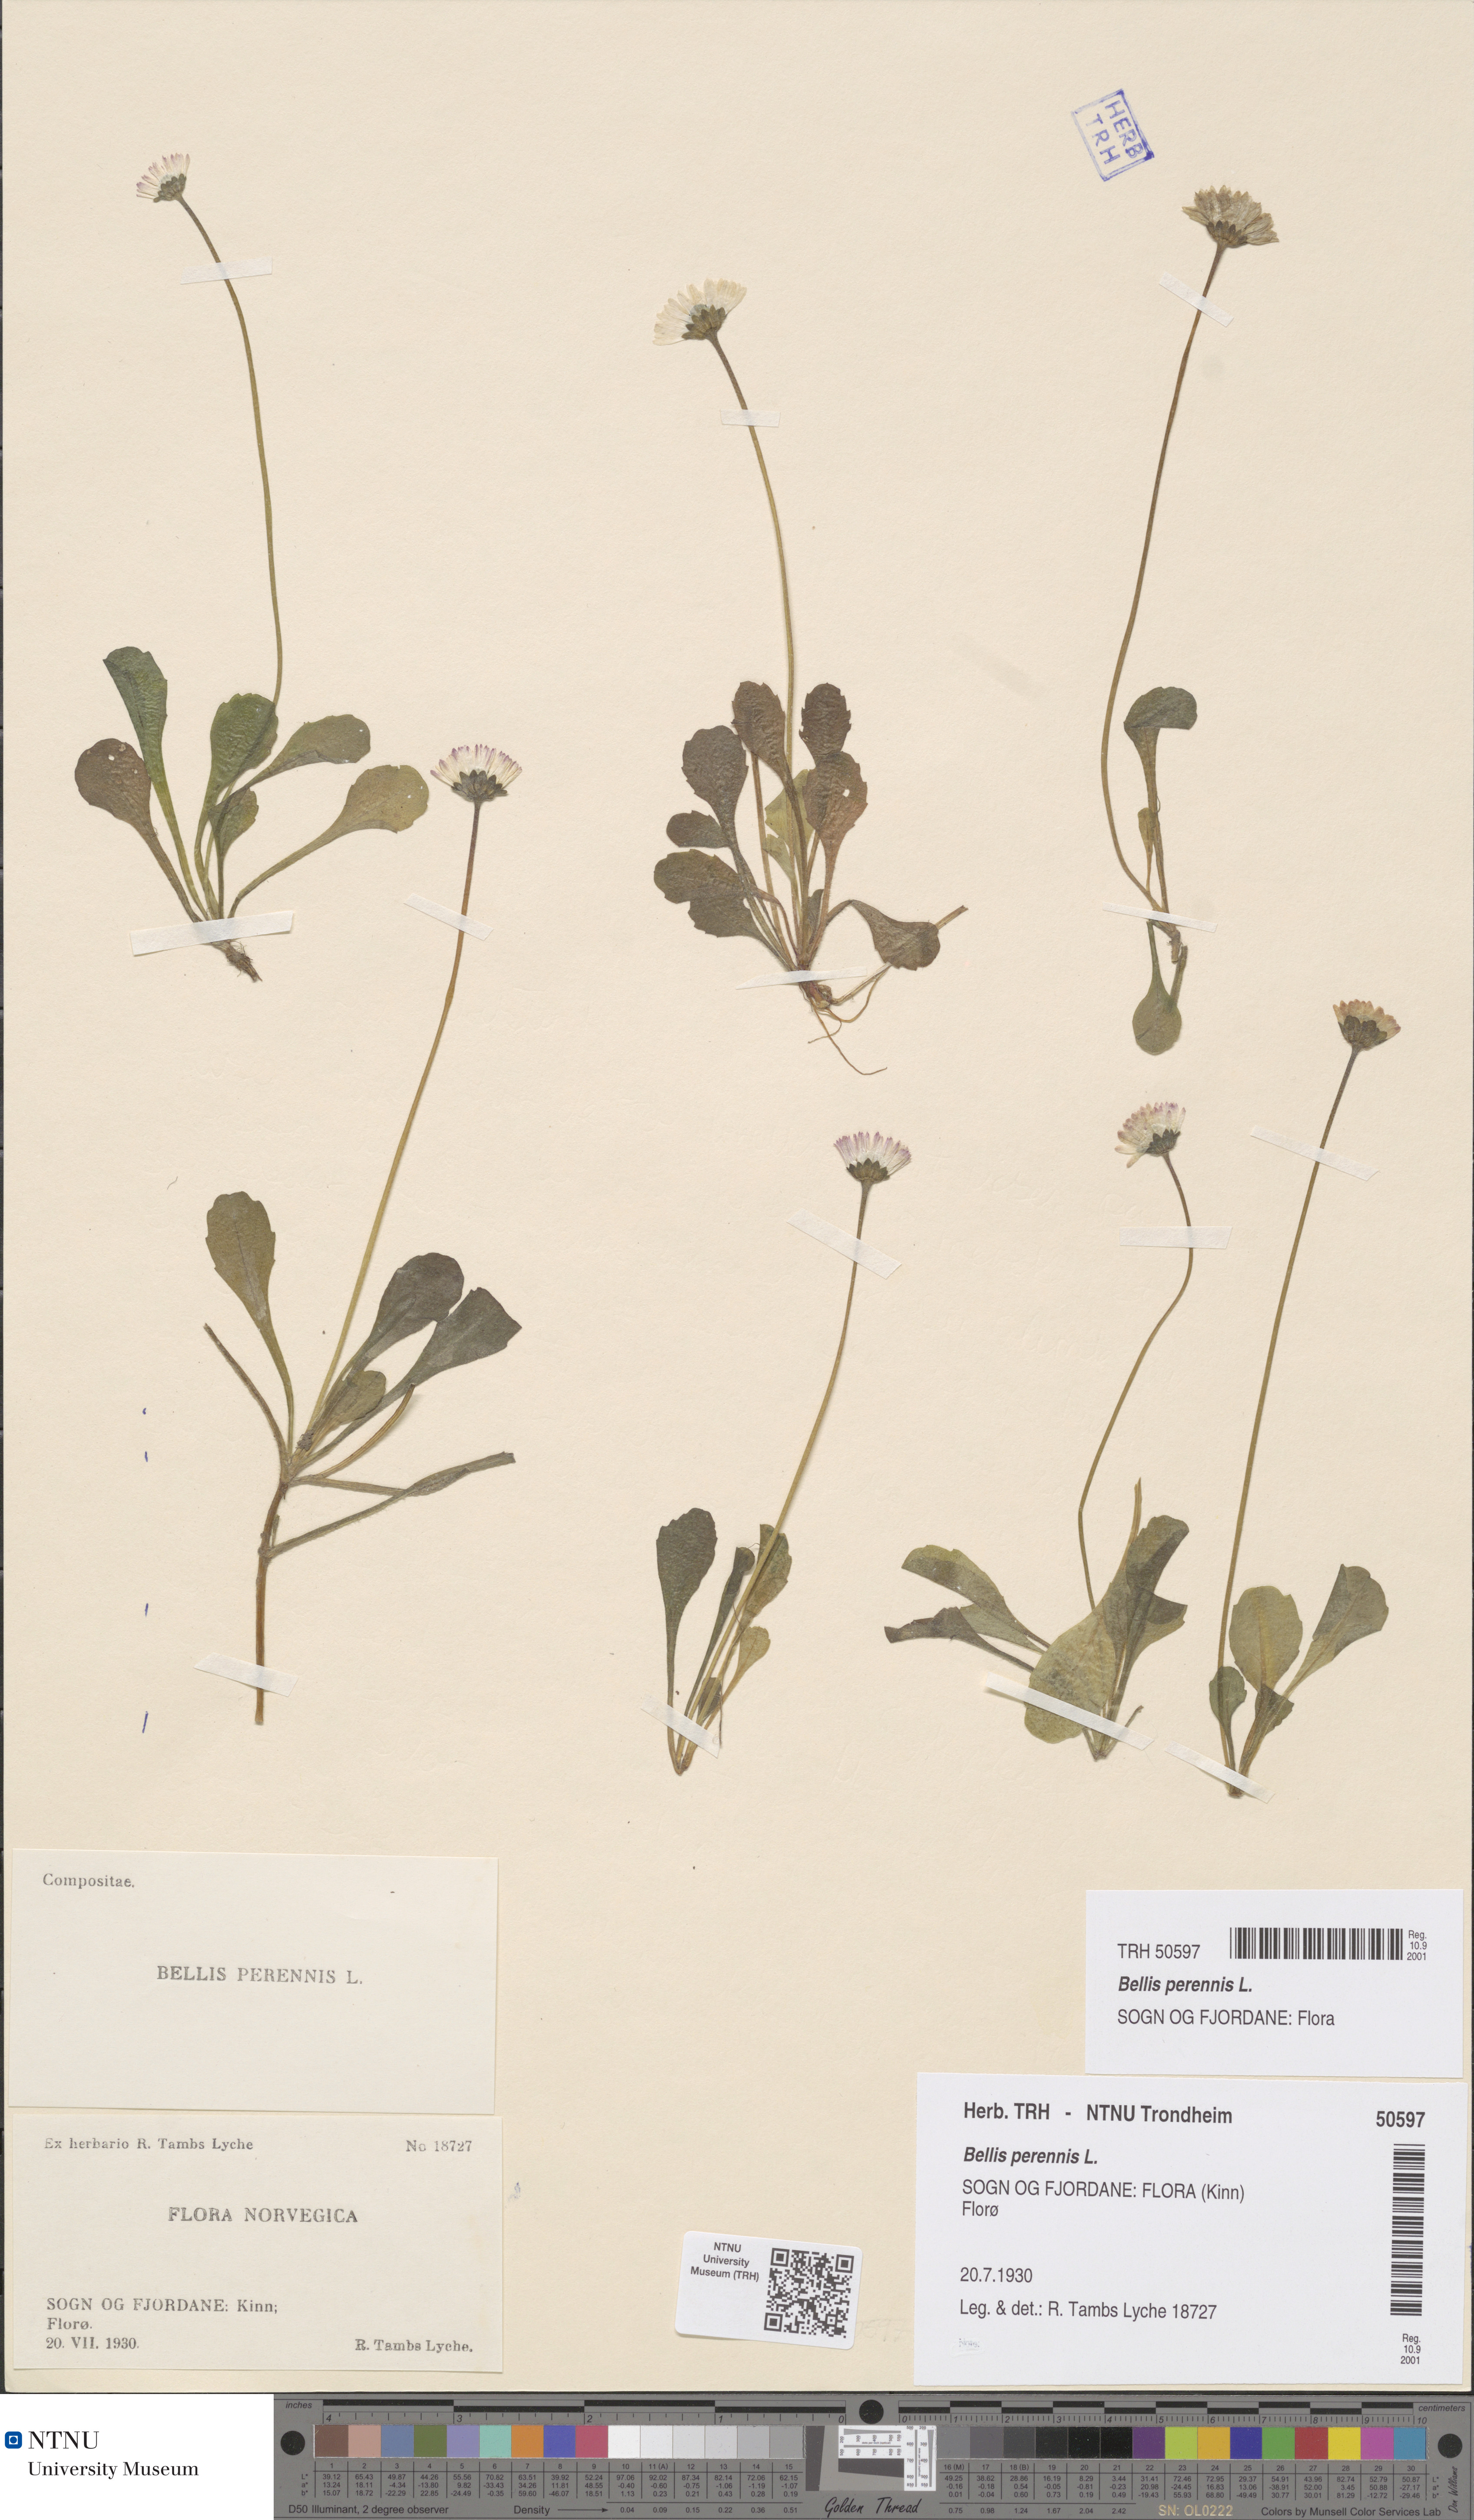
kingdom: Plantae
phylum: Tracheophyta
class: Magnoliopsida
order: Asterales
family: Asteraceae
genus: Bellis
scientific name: Bellis perennis
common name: Lawndaisy
